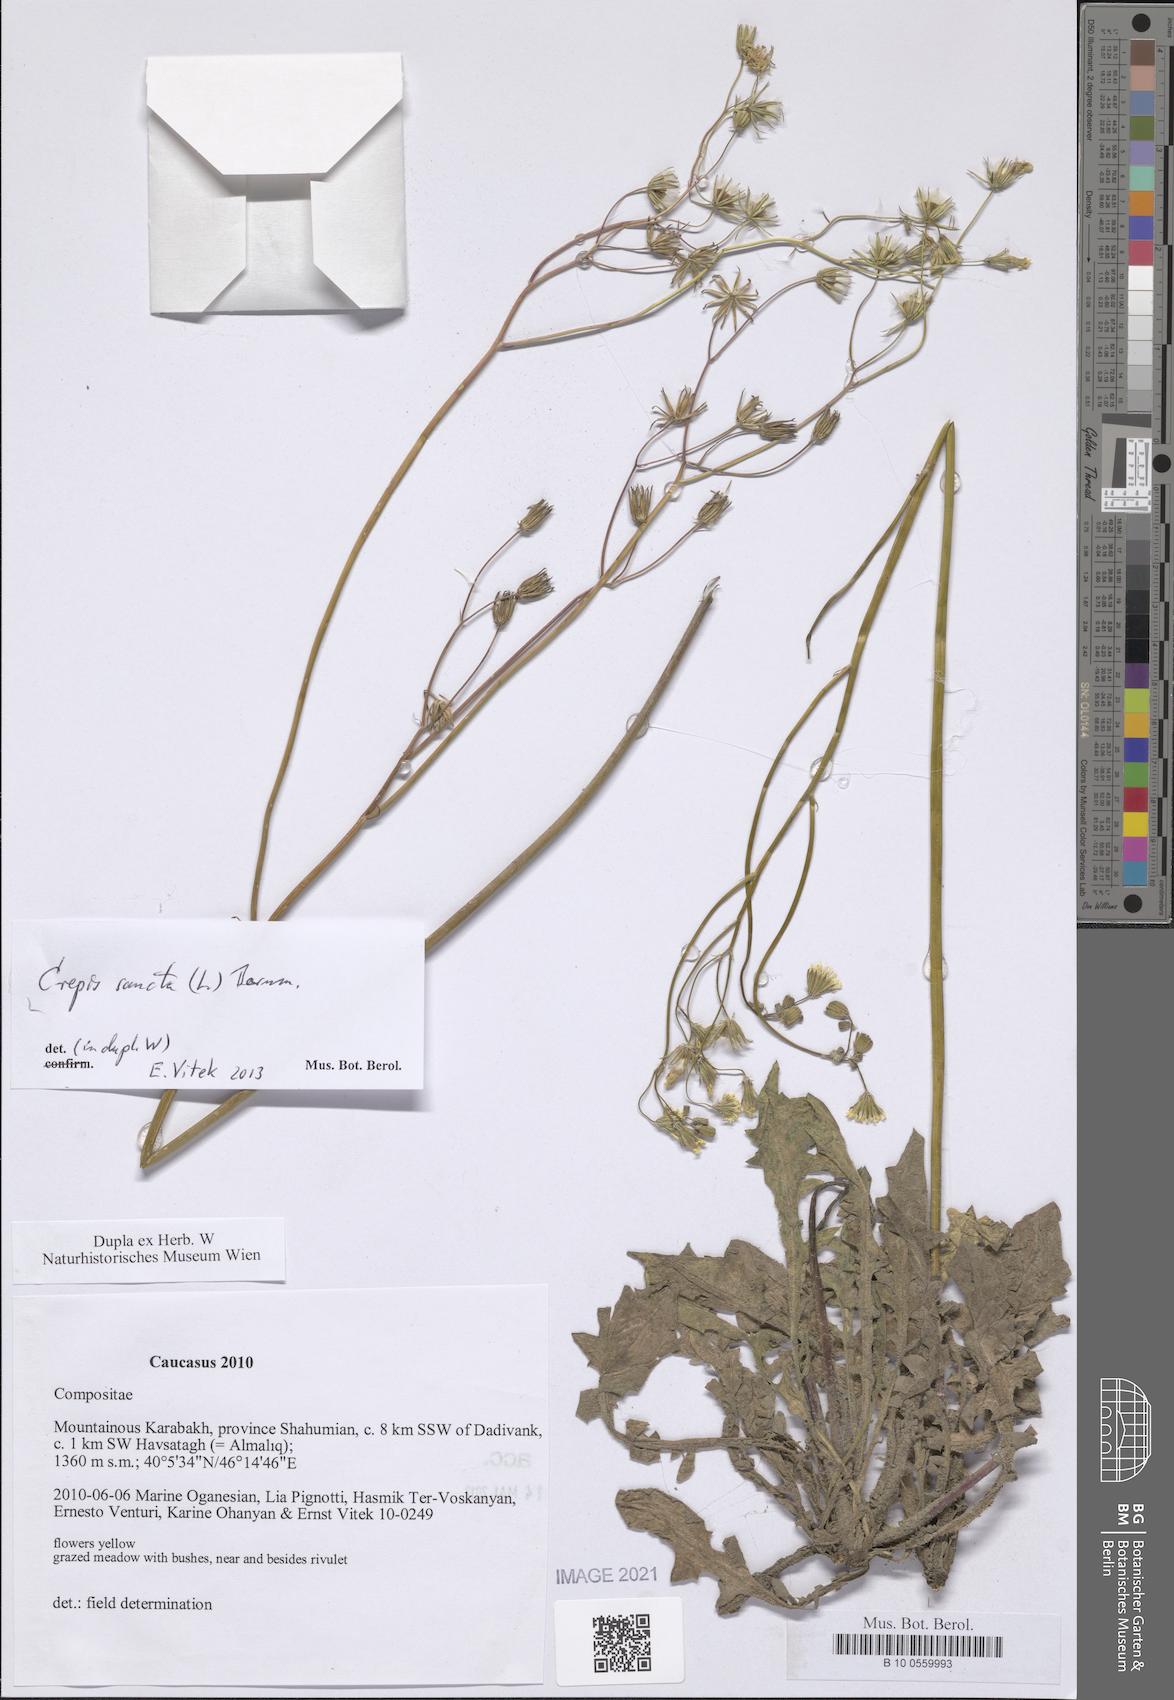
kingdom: Plantae
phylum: Tracheophyta
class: Magnoliopsida
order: Asterales
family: Asteraceae
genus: Crepis
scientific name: Crepis sancta
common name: Hawk's-beard
